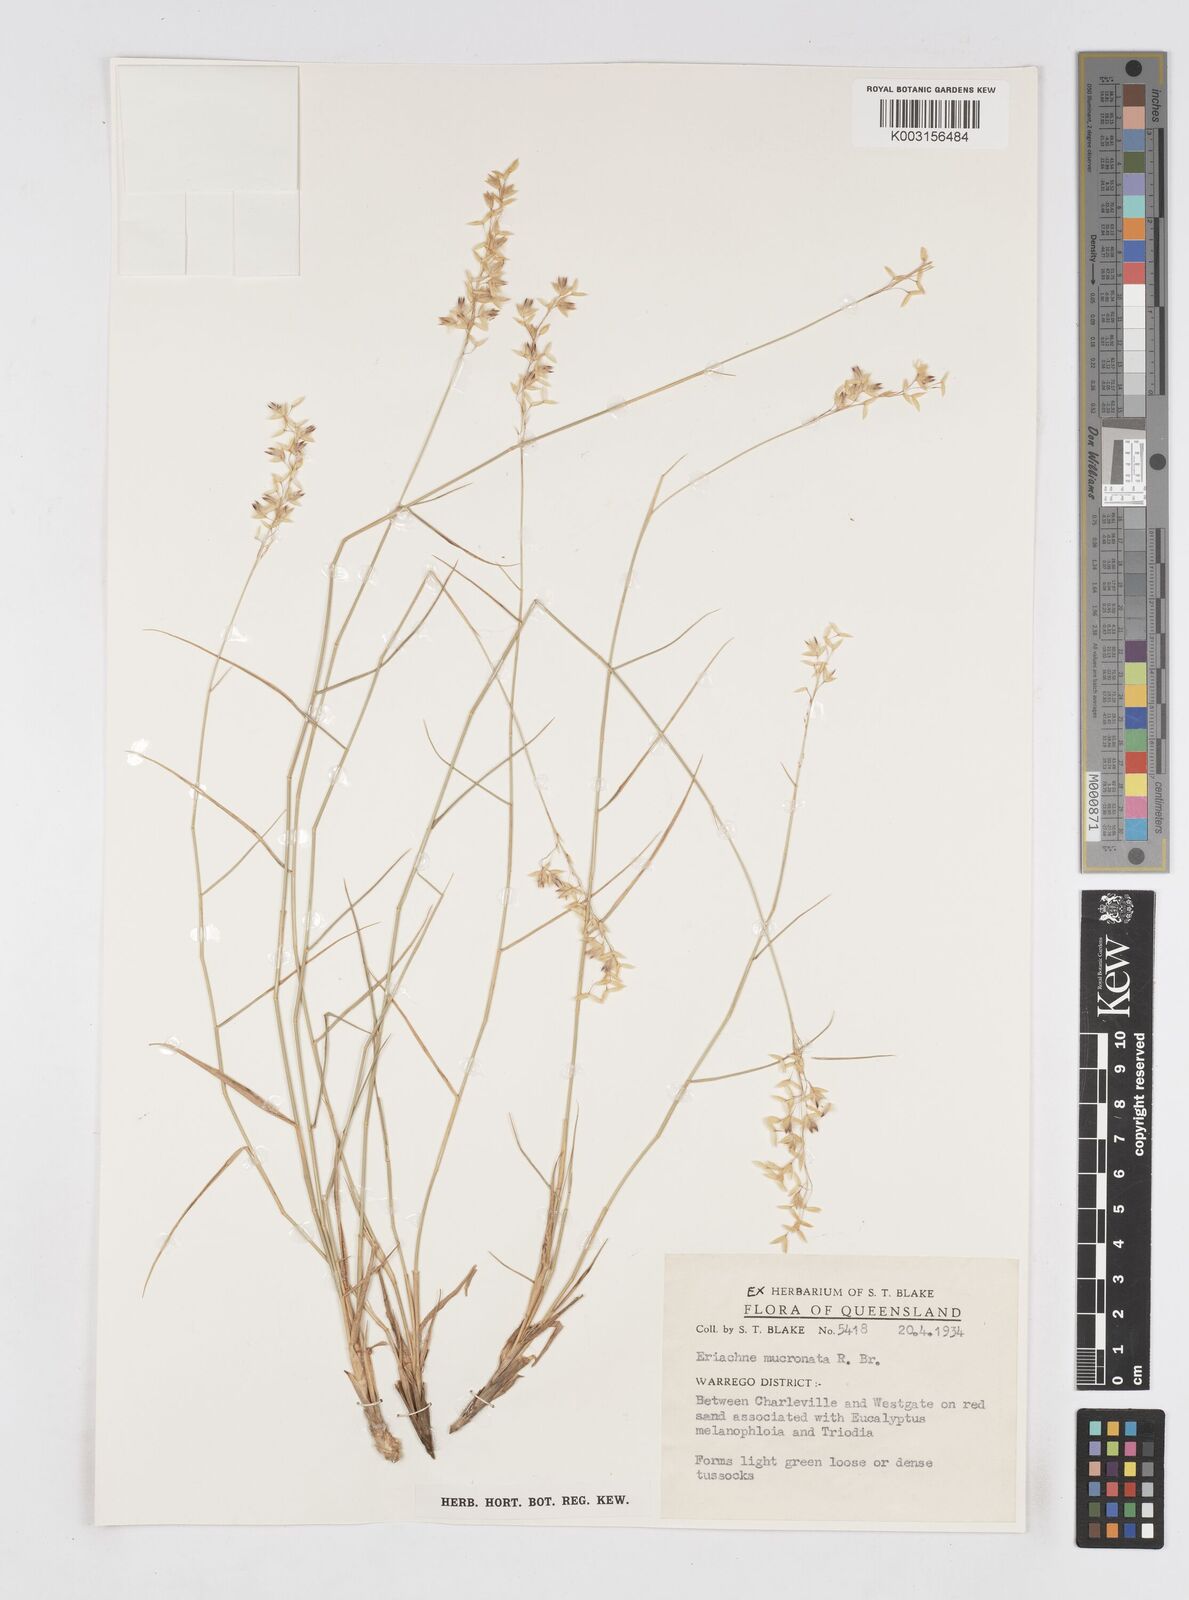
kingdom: Plantae
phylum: Tracheophyta
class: Liliopsida
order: Poales
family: Poaceae
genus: Eriachne
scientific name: Eriachne mucronata
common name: Mountain wanderrie grass
